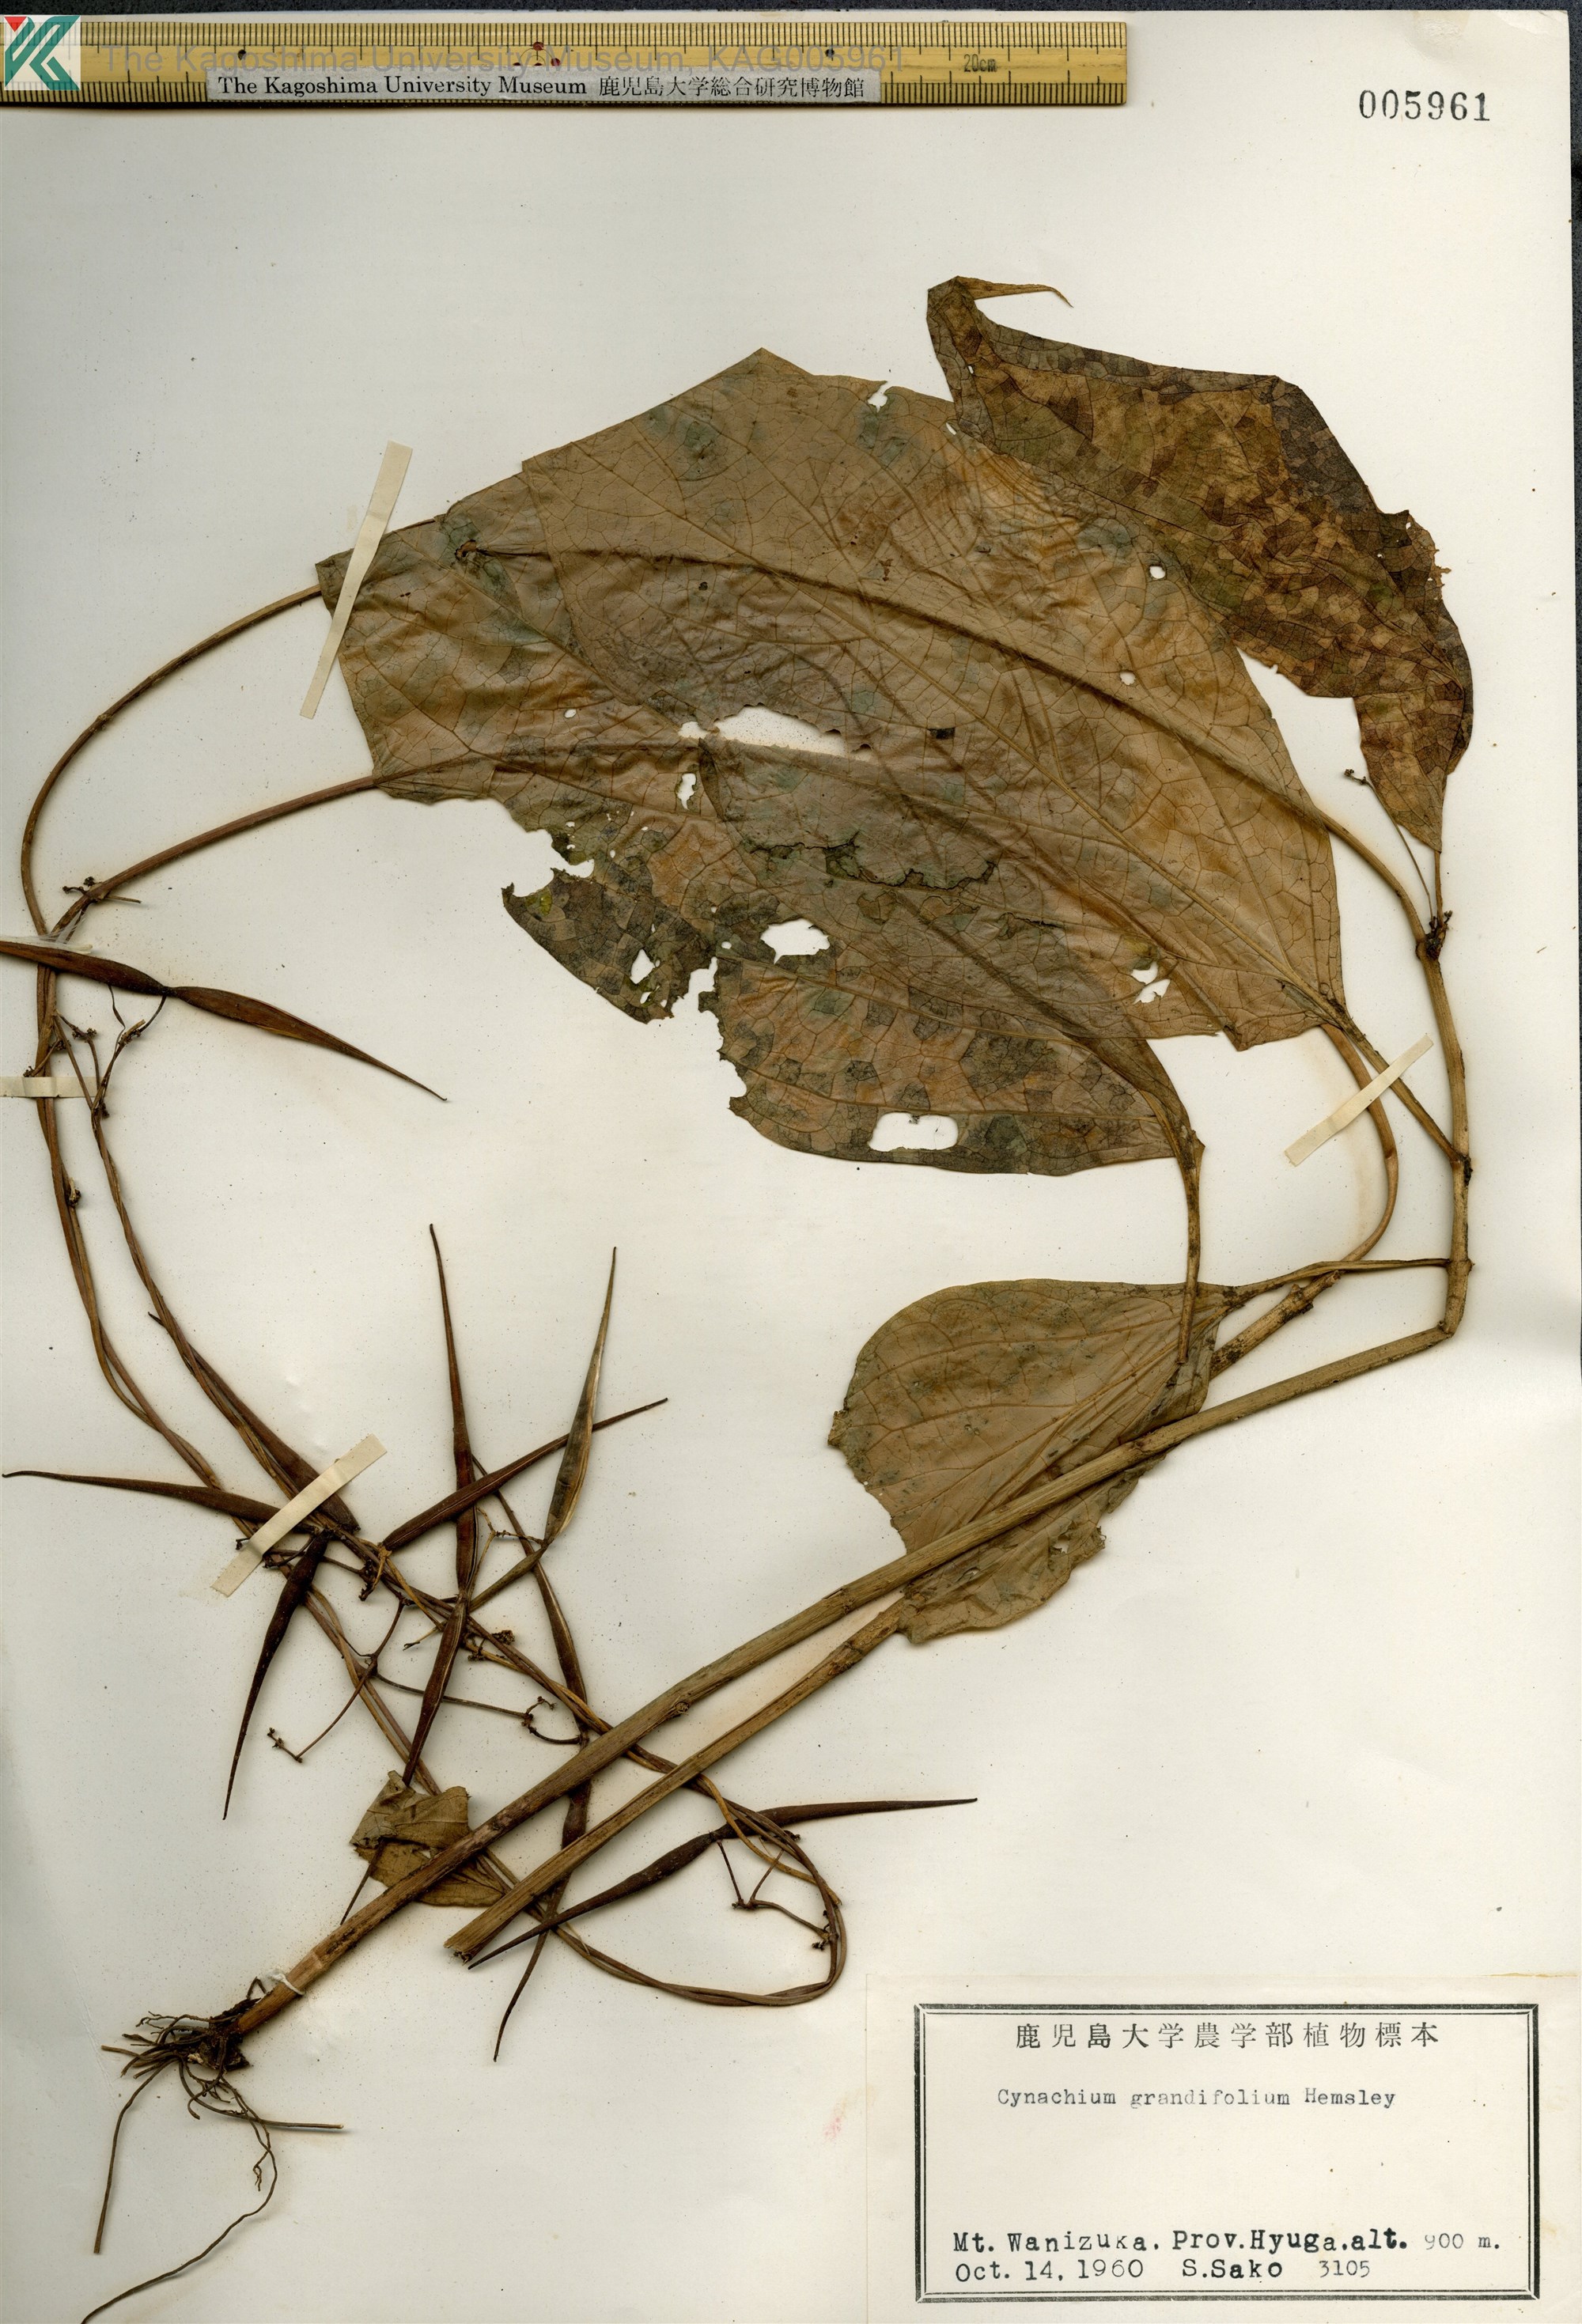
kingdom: Plantae
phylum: Tracheophyta
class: Magnoliopsida
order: Gentianales
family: Apocynaceae
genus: Vincetoxicum
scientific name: Vincetoxicum macrophyllum
